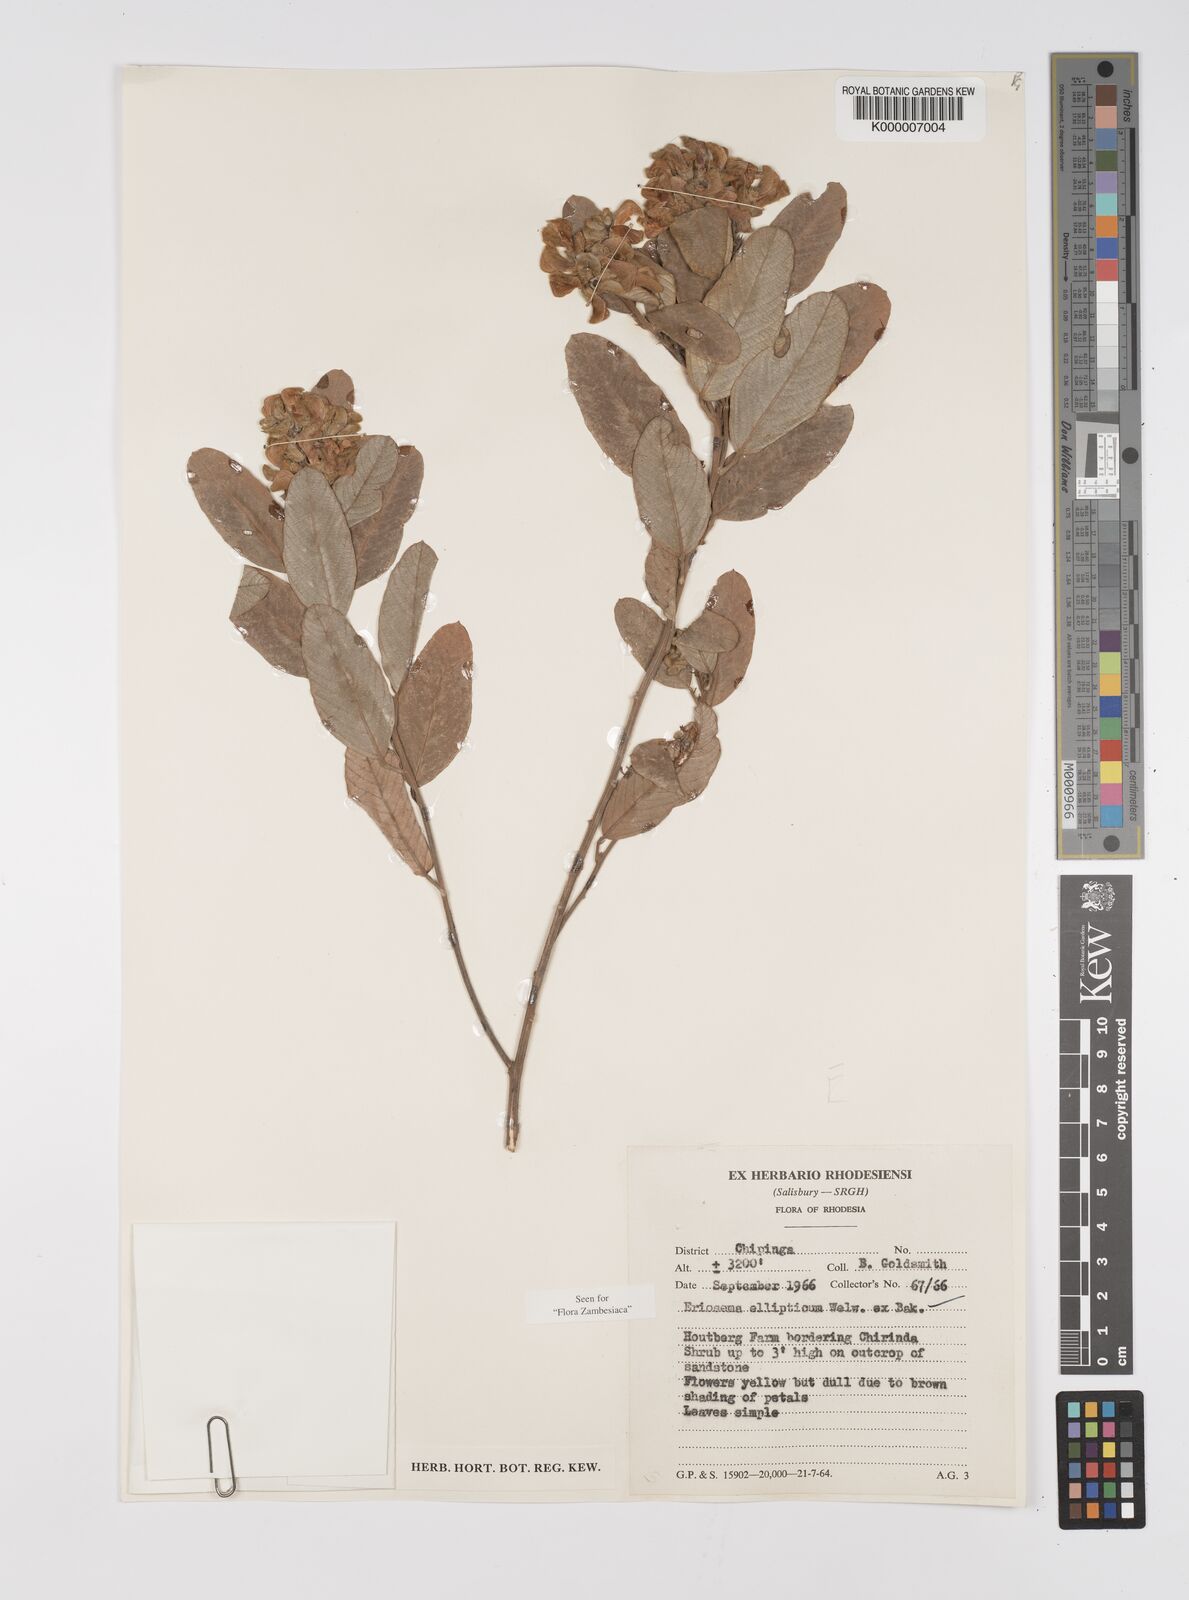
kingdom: Plantae
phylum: Tracheophyta
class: Magnoliopsida
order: Fabales
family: Fabaceae
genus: Eriosema
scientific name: Eriosema ellipticum
